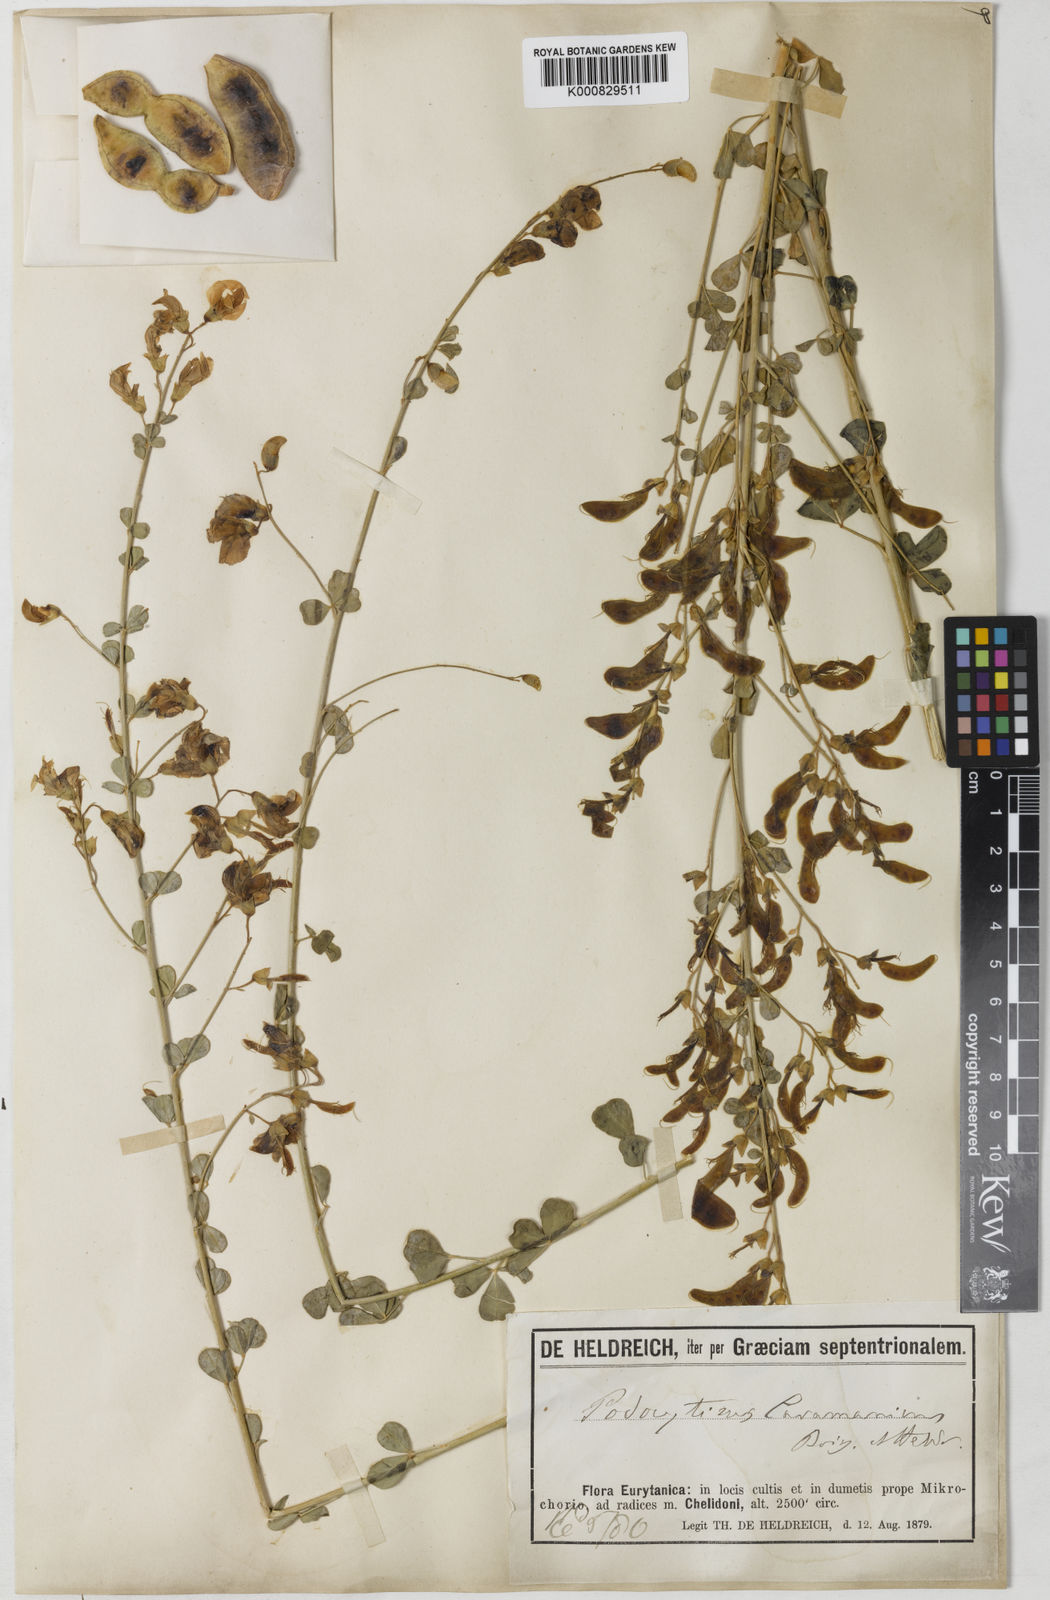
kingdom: Plantae
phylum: Tracheophyta
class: Magnoliopsida
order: Fabales
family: Fabaceae
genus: Podocytisus
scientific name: Podocytisus caramanicus
